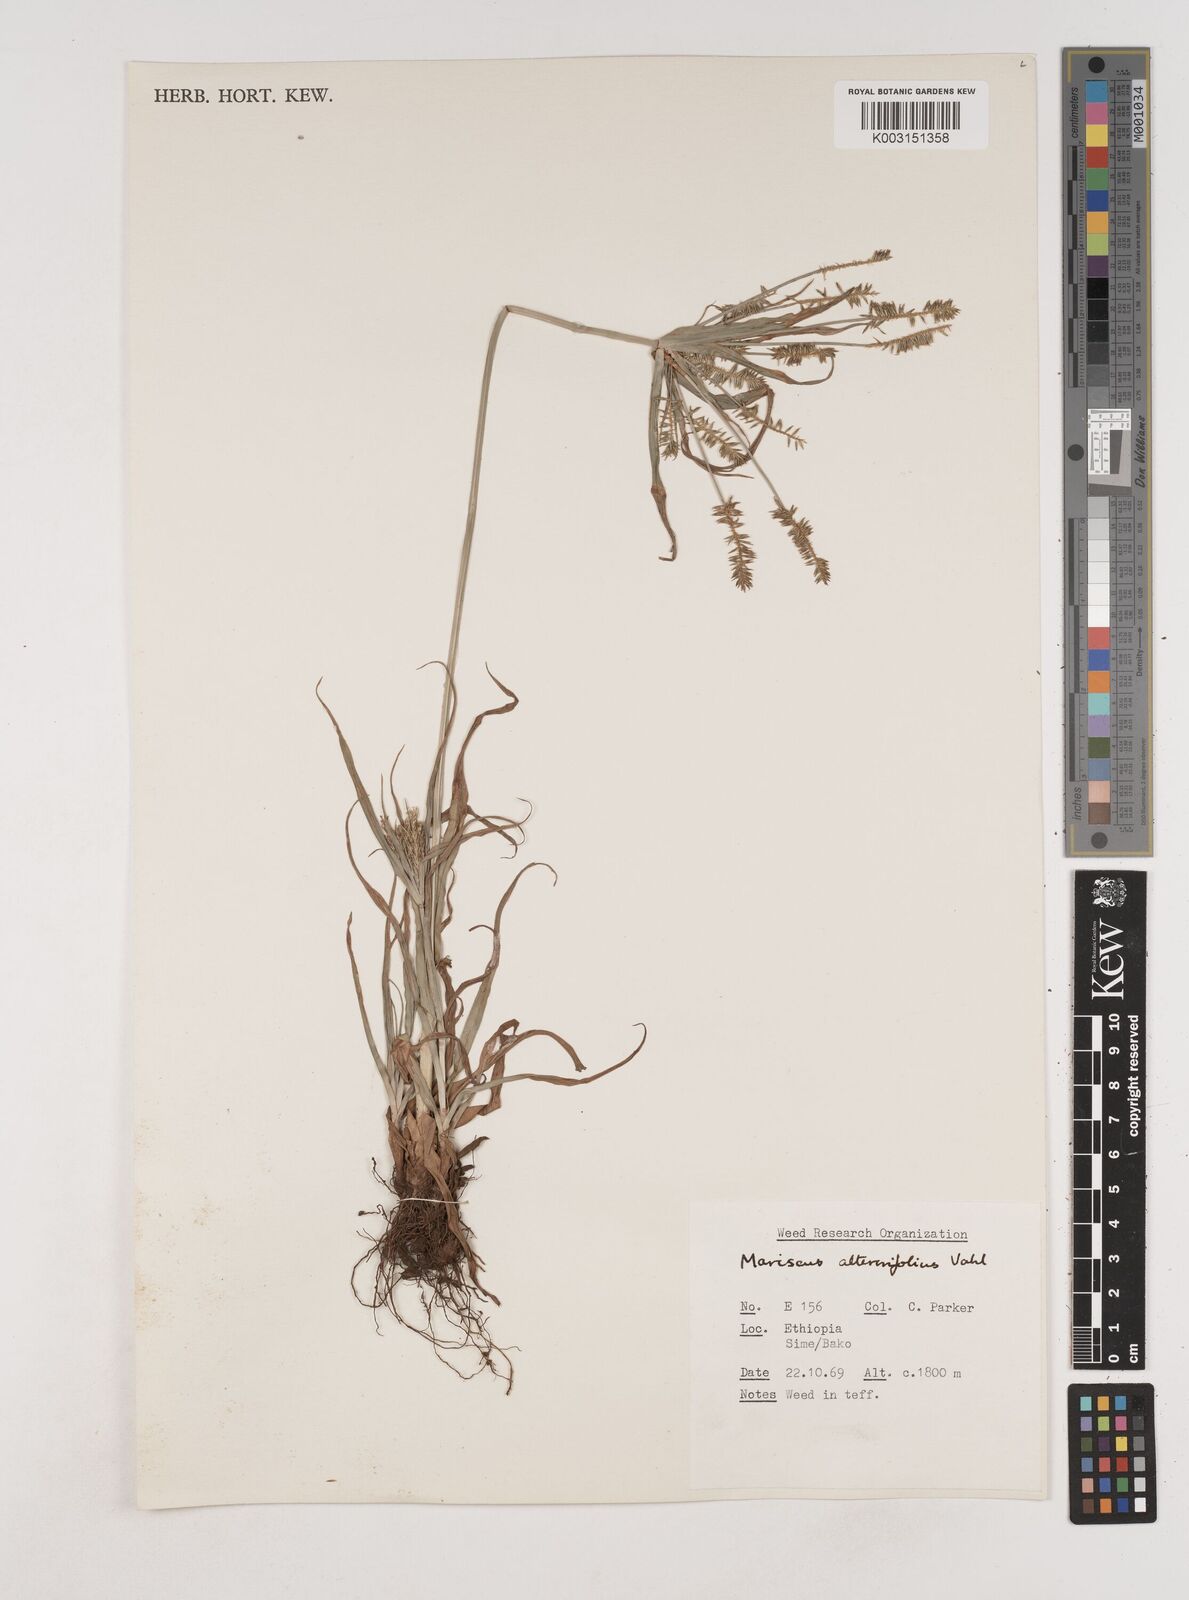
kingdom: Plantae
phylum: Tracheophyta
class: Liliopsida
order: Poales
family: Cyperaceae
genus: Cyperus
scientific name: Cyperus cyperoides
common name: Pacific island flat sedge
